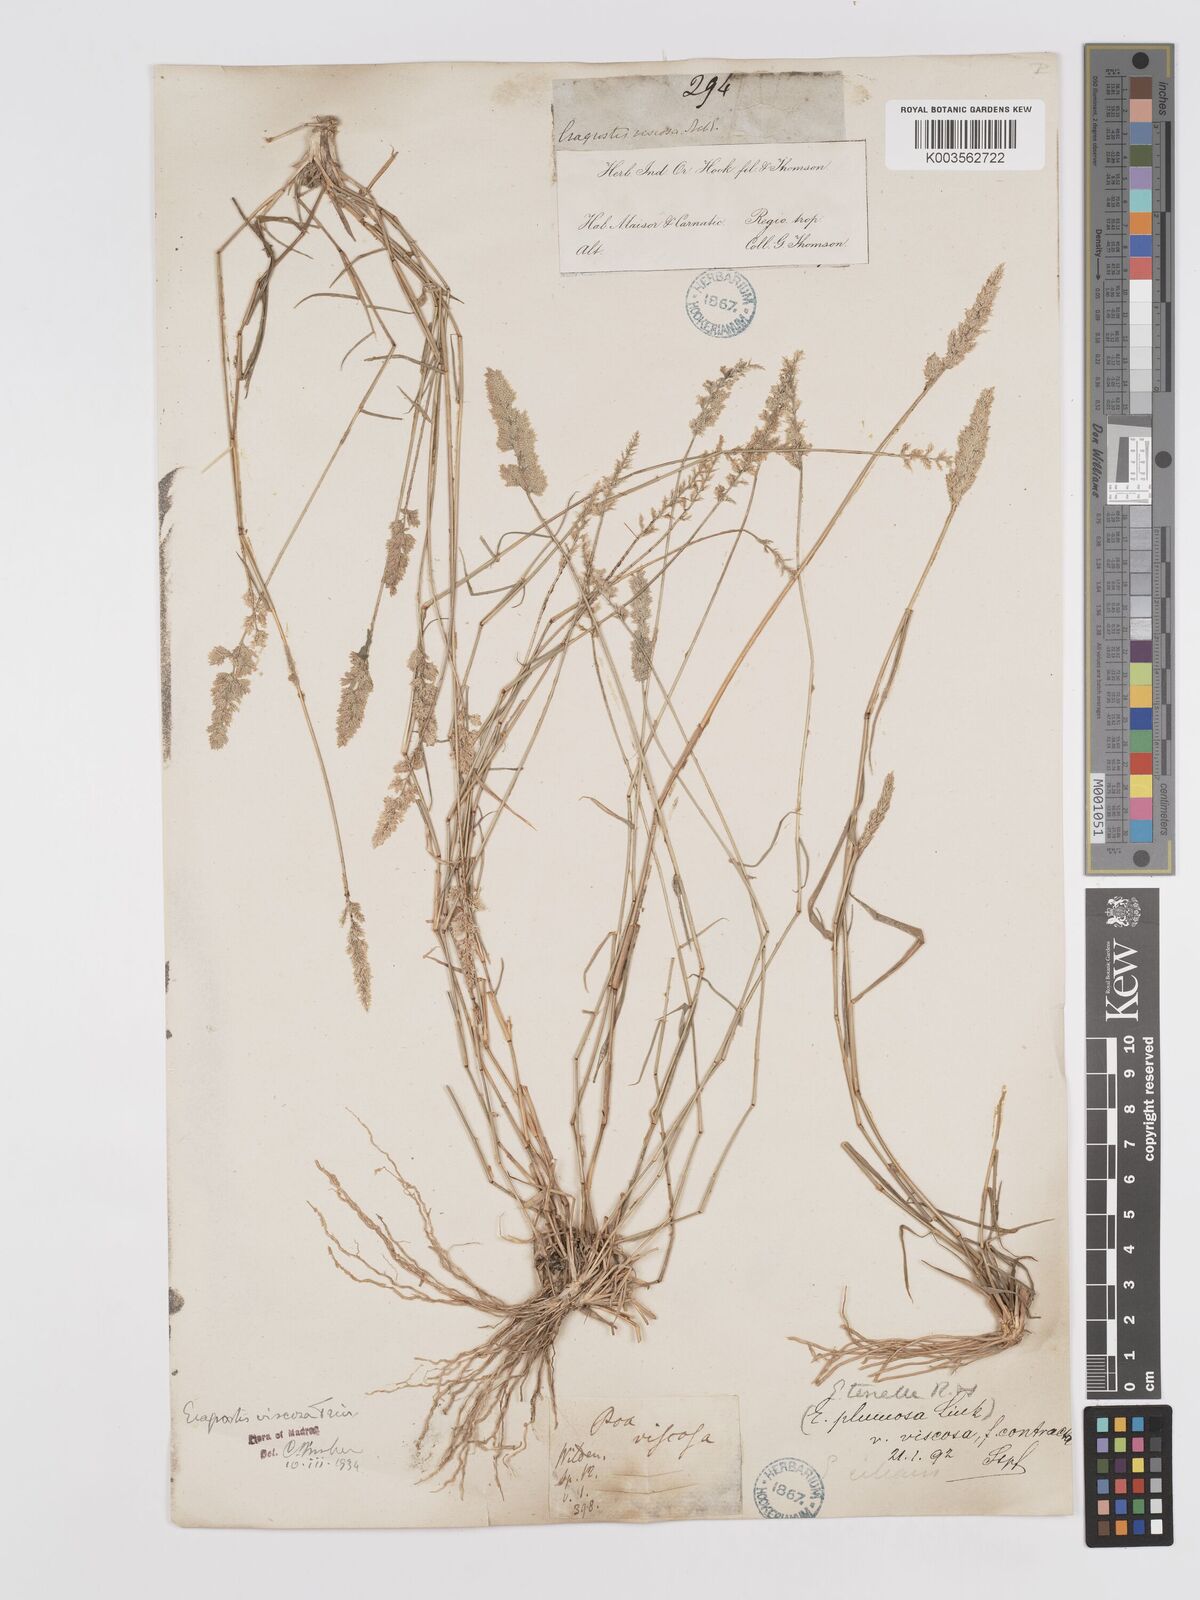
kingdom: Plantae
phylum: Tracheophyta
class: Liliopsida
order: Poales
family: Poaceae
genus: Eragrostis
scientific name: Eragrostis riparia
